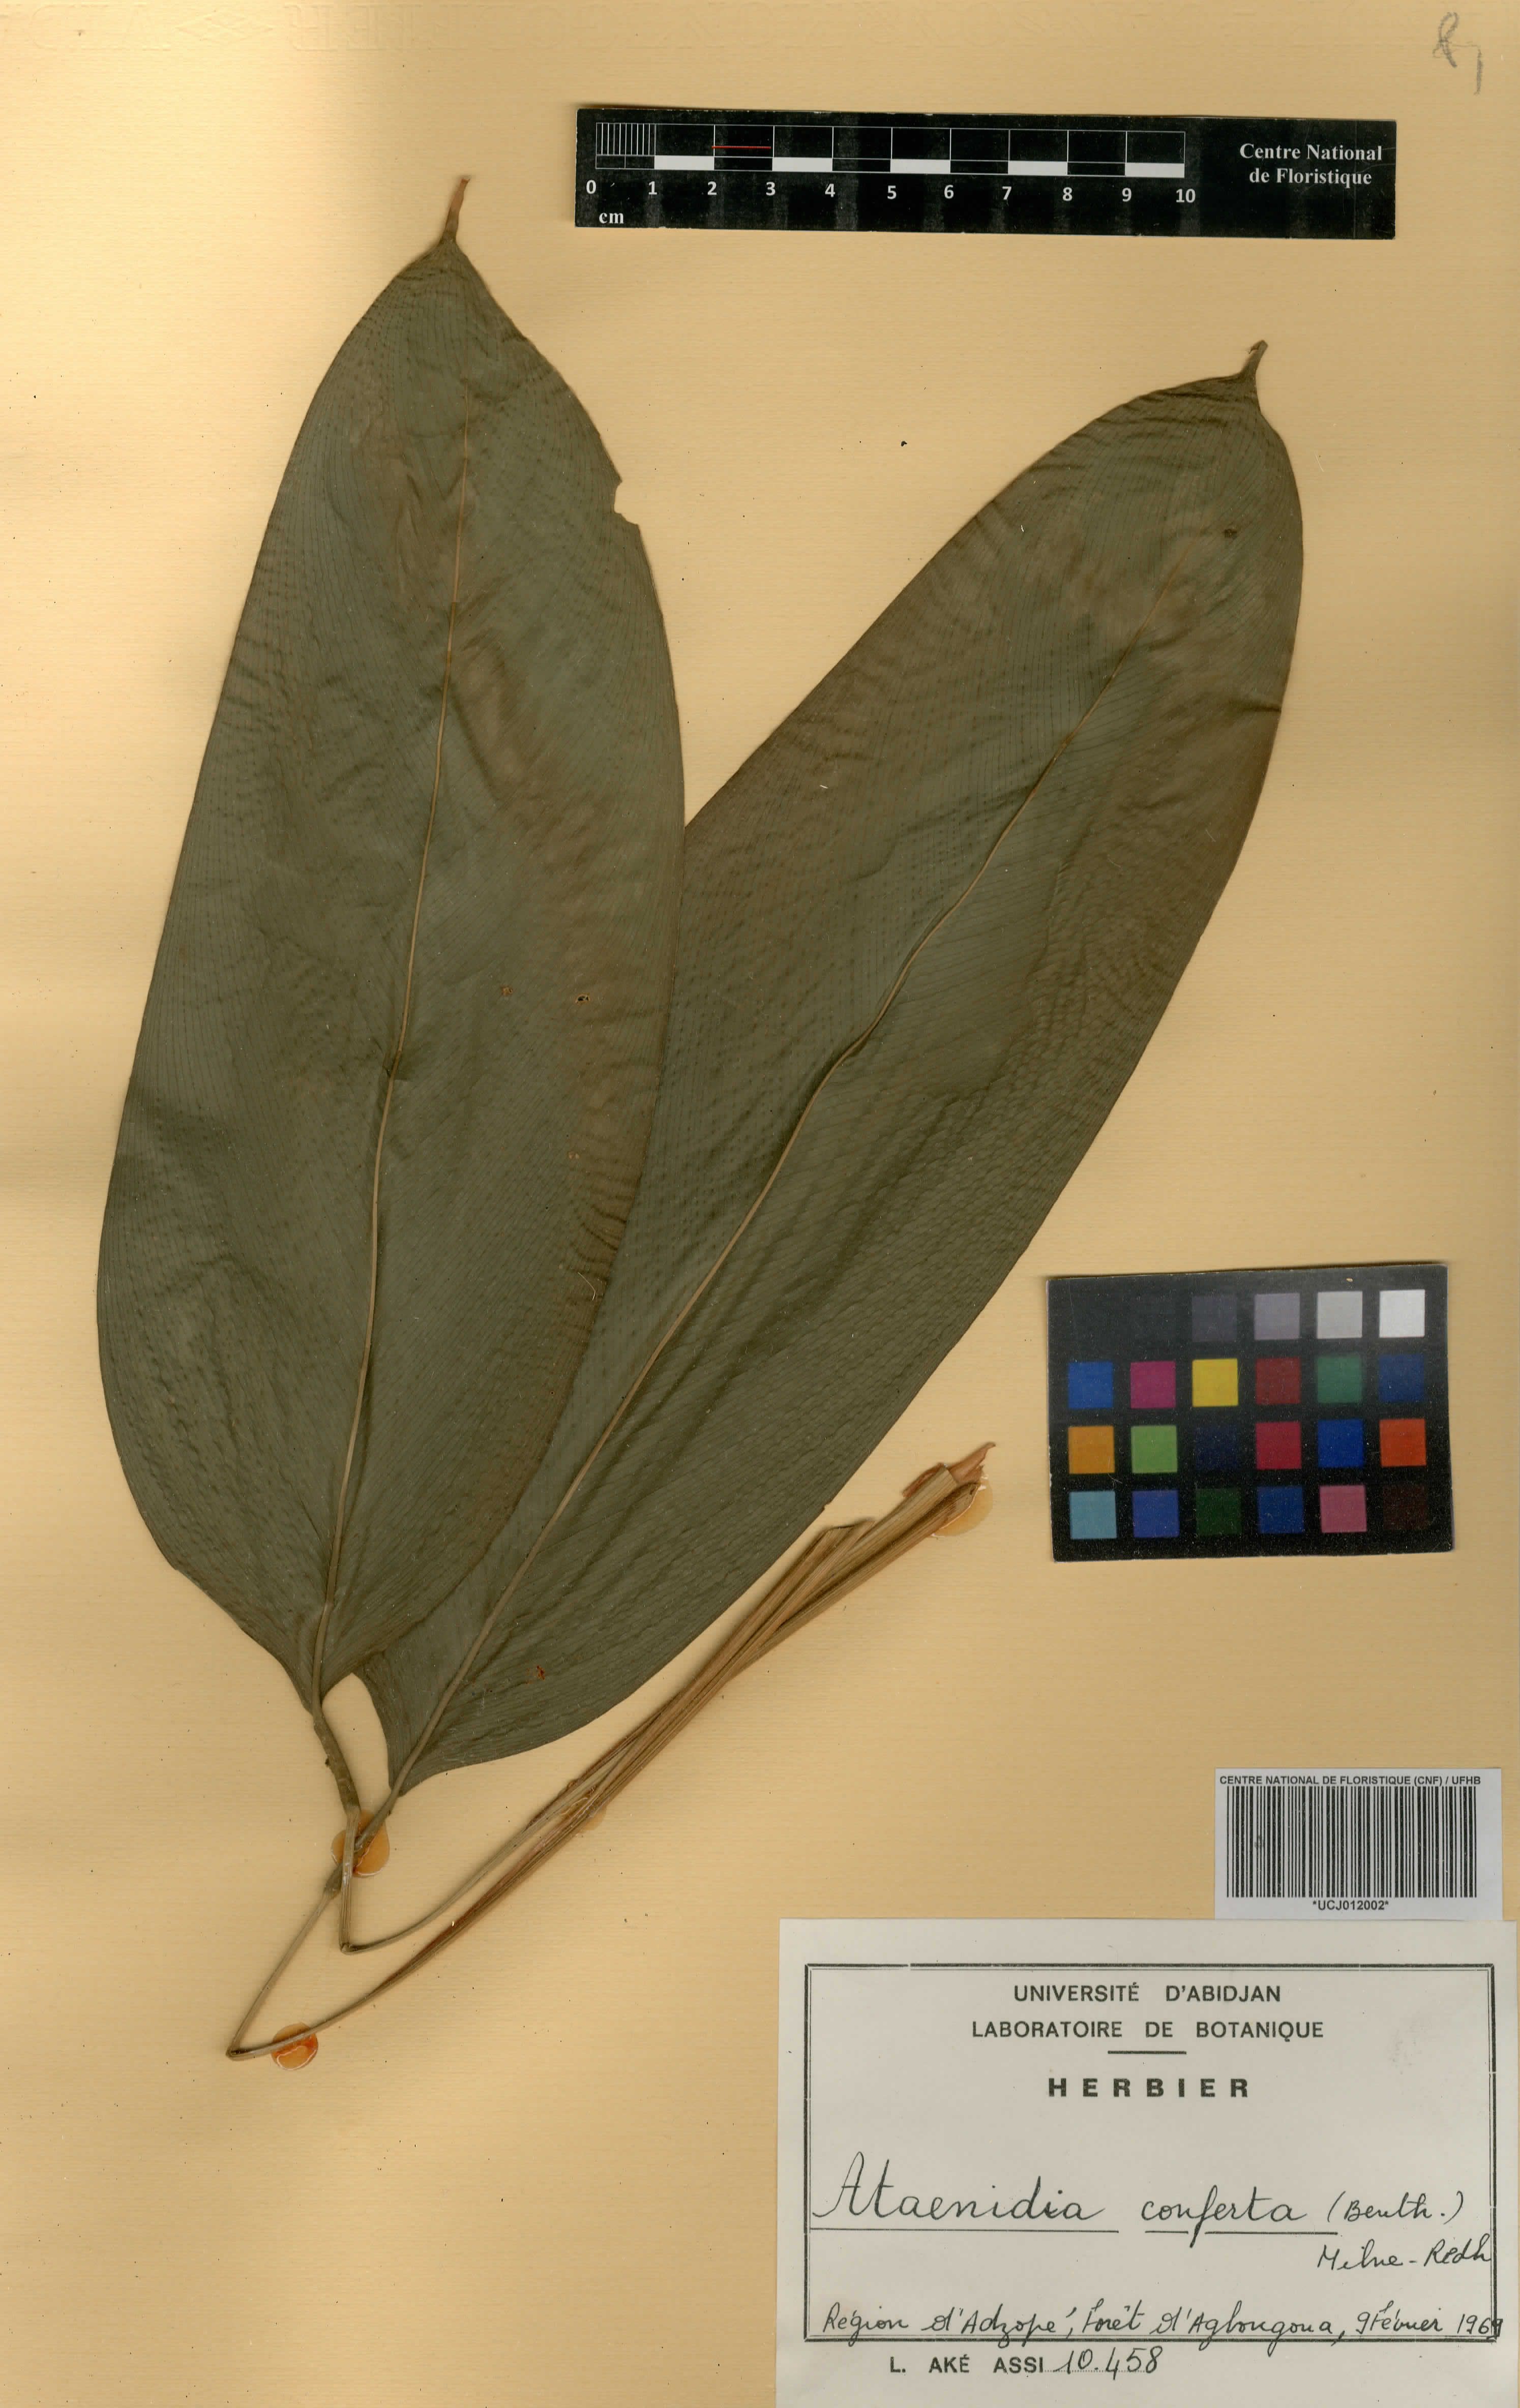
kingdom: Plantae
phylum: Tracheophyta
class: Liliopsida
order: Zingiberales
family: Marantaceae
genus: Marantochloa
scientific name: Marantochloa conferta
